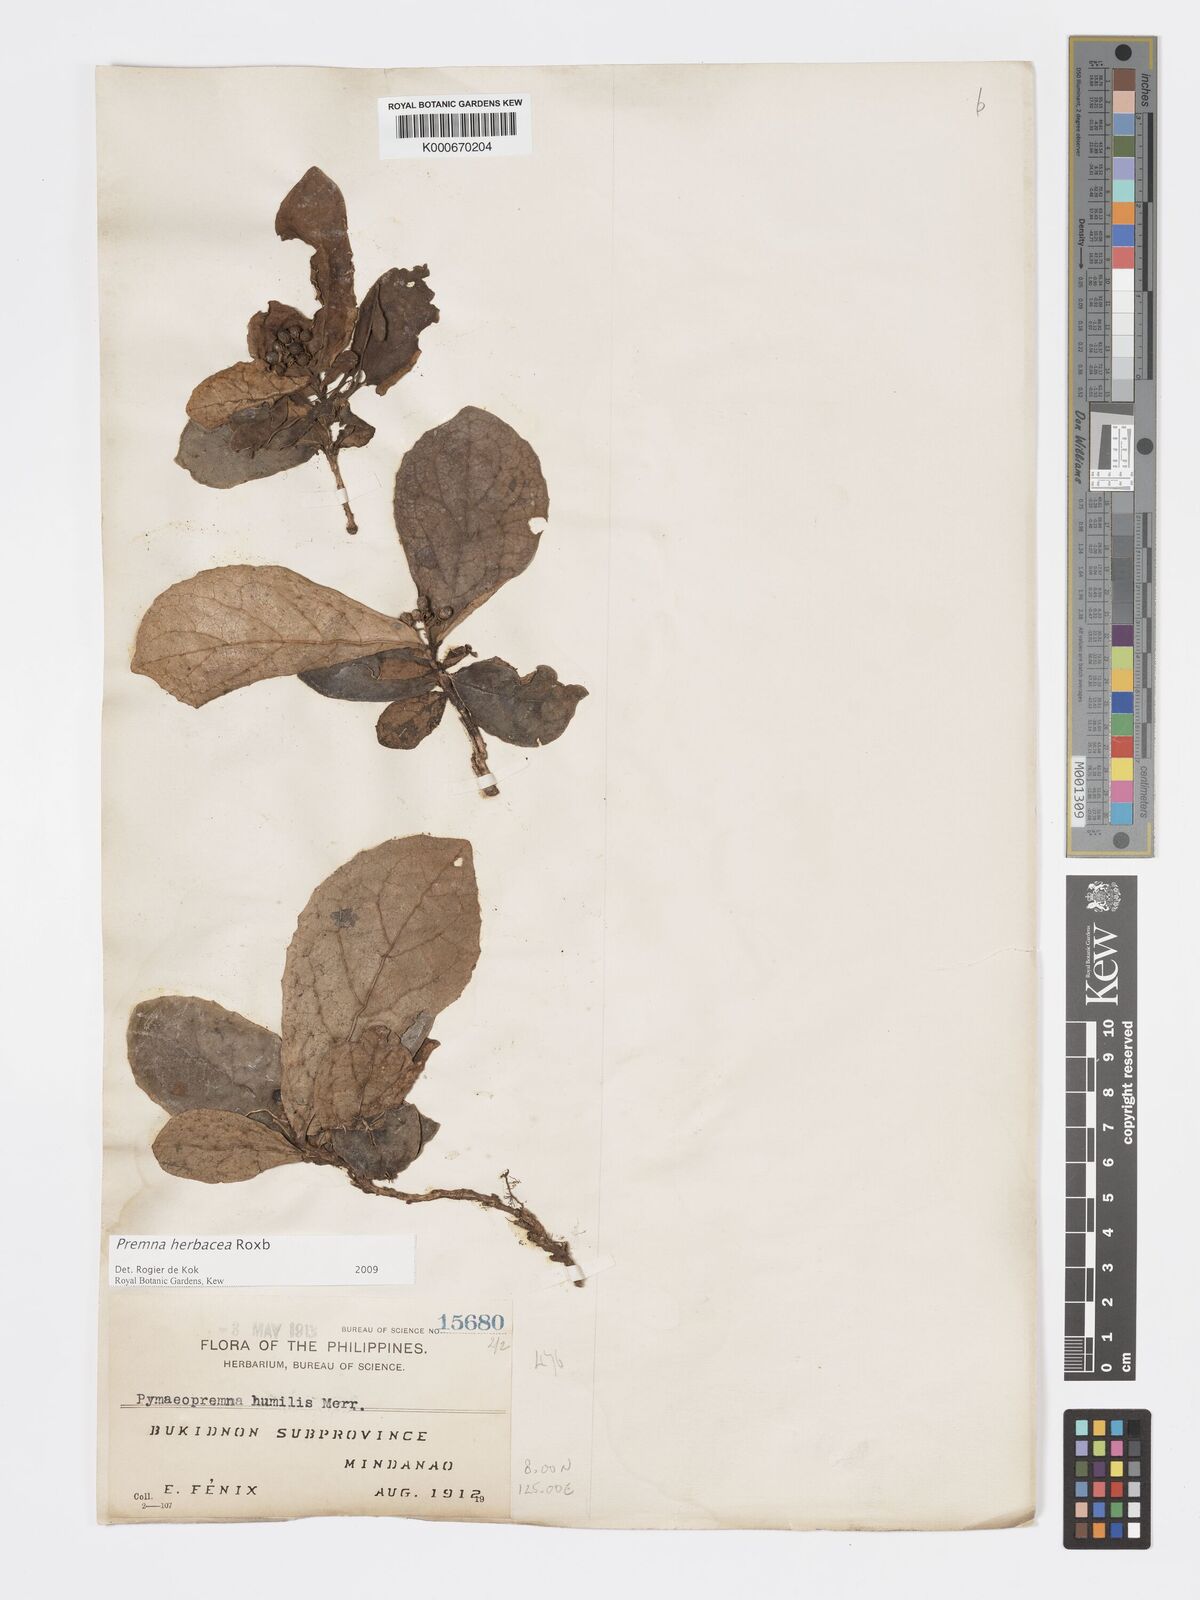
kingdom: Plantae
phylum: Tracheophyta
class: Magnoliopsida
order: Lamiales
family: Lamiaceae
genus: Premna
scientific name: Premna herbacea
